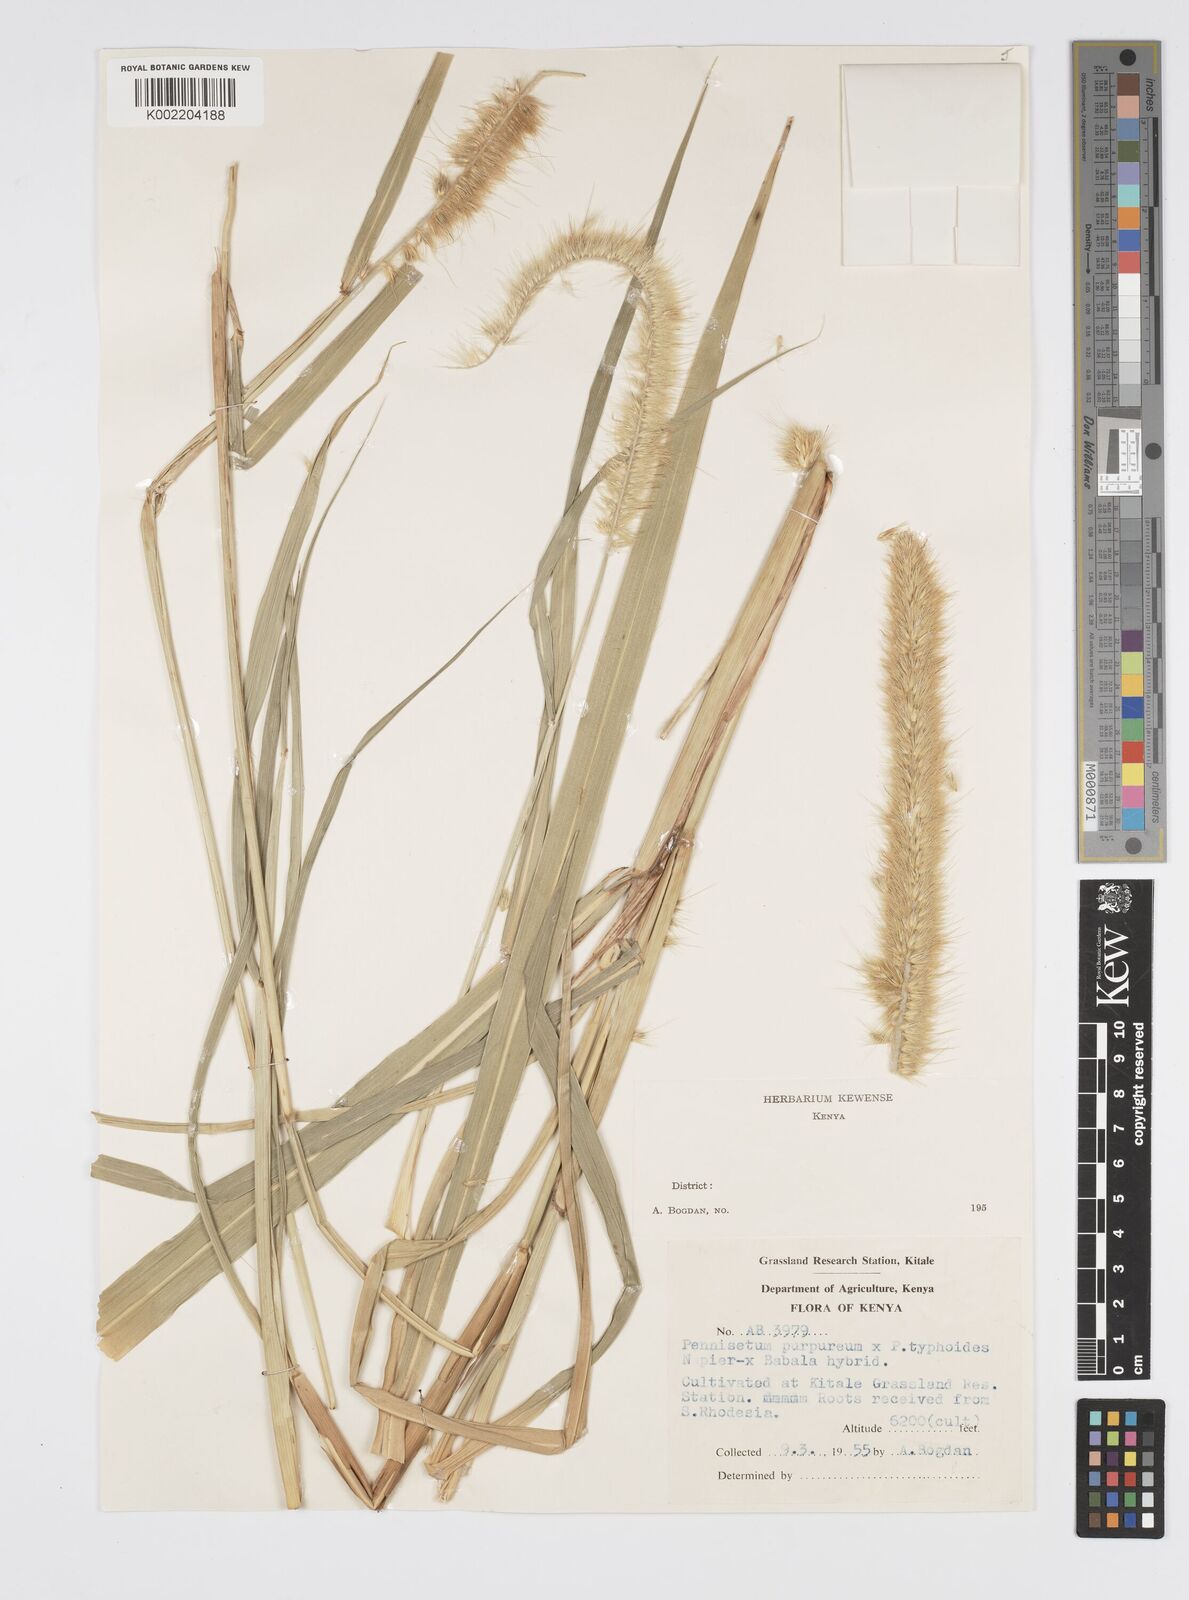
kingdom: Plantae
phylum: Tracheophyta
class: Liliopsida
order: Poales
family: Poaceae
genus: Cenchrus
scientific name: Cenchrus purpureus
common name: Elephant grass
